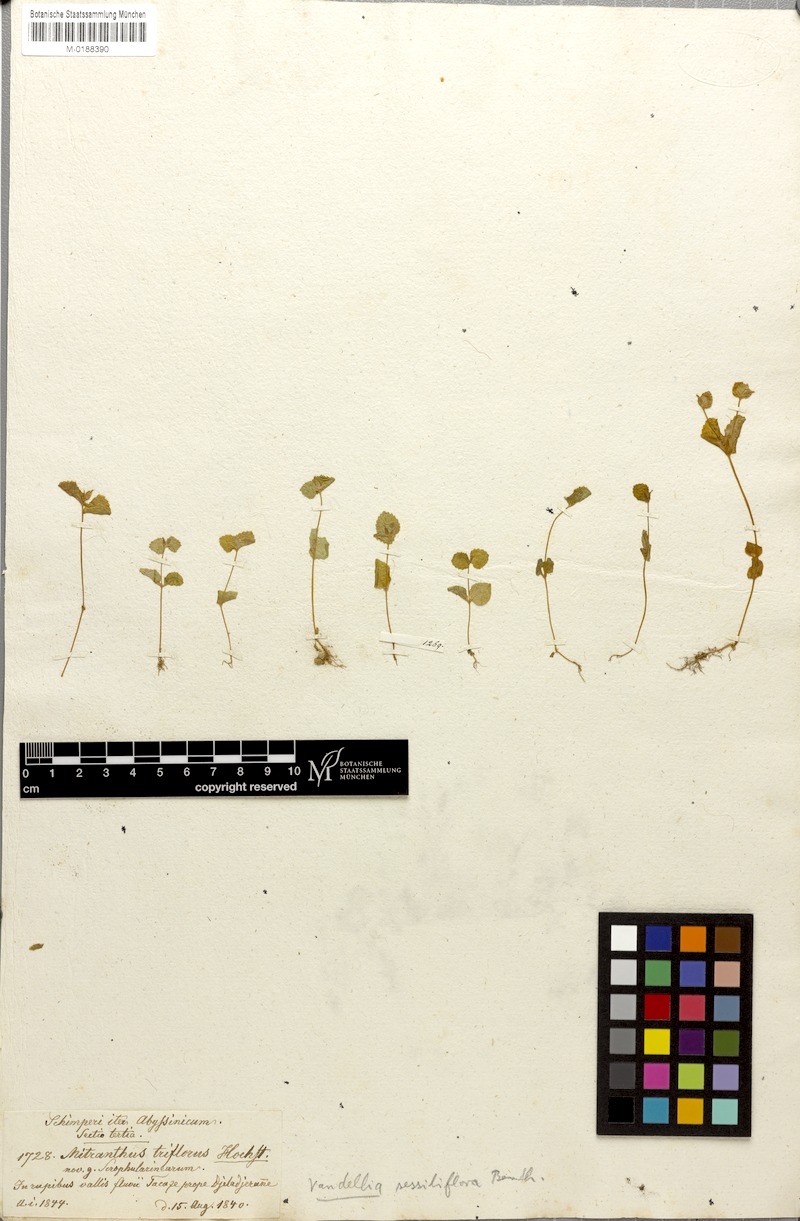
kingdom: Plantae
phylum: Tracheophyta
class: Magnoliopsida
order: Lamiales
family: Linderniaceae
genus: Craterostigma
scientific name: Craterostigma sessiliflorum
